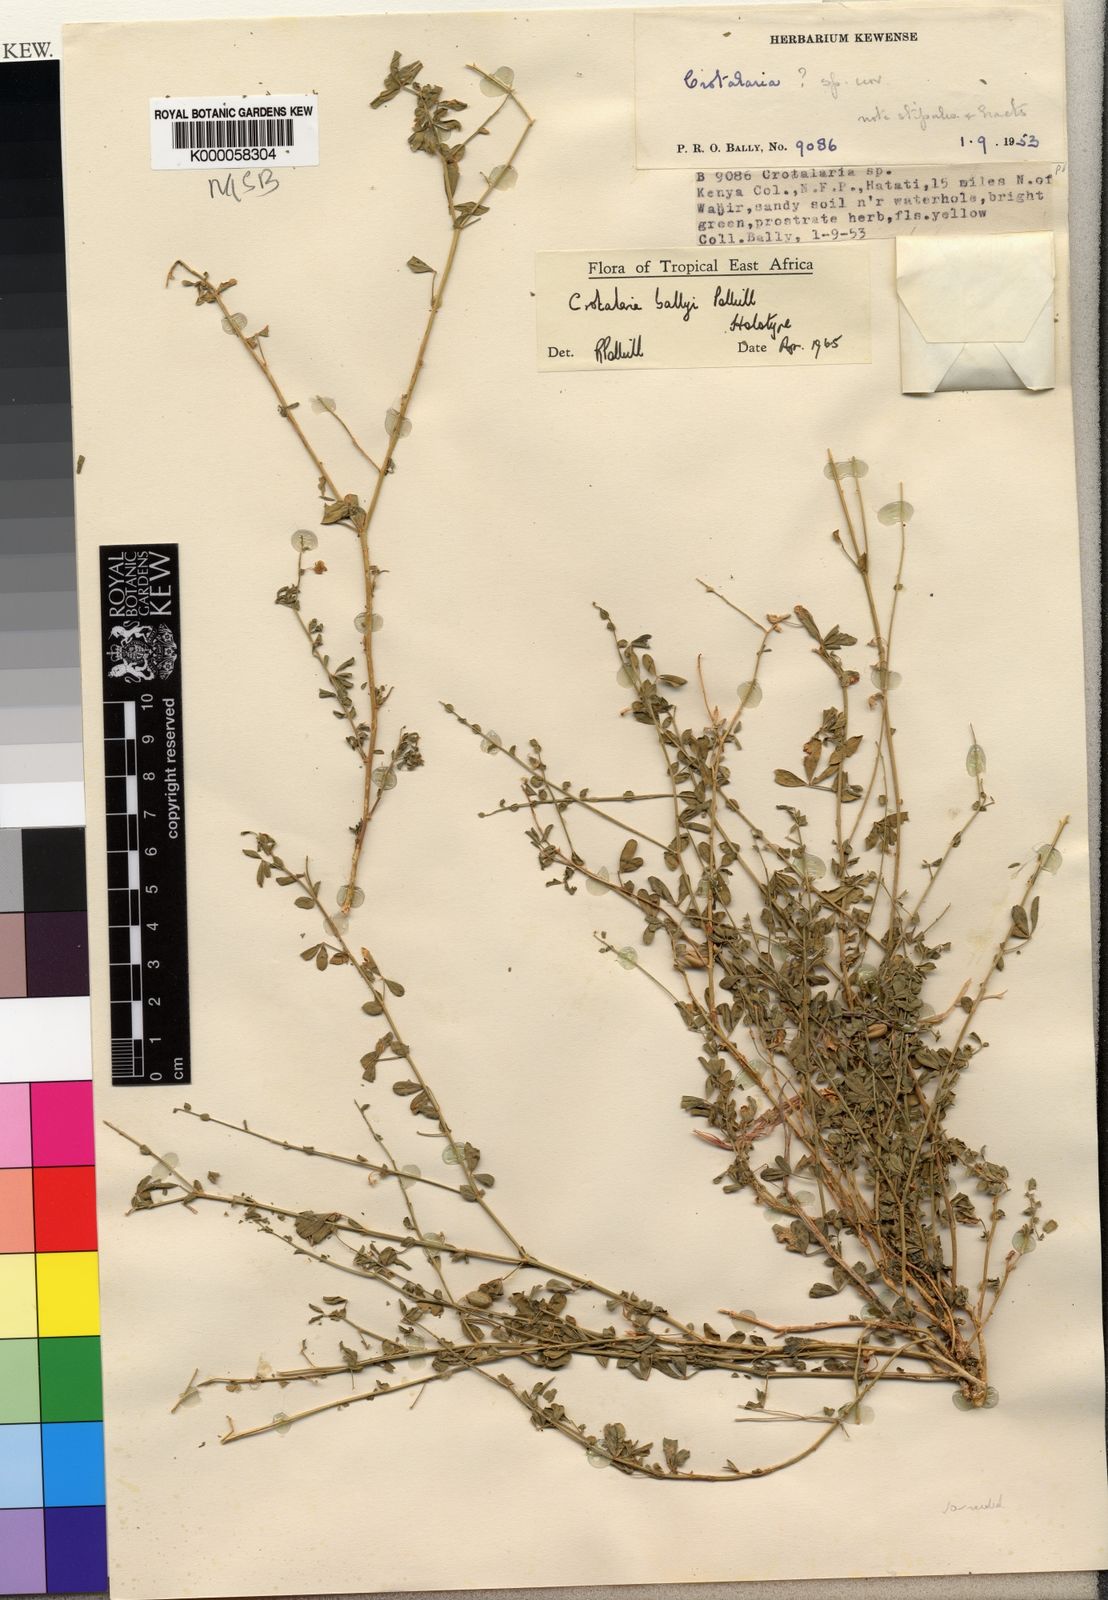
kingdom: Plantae
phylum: Tracheophyta
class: Magnoliopsida
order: Fabales
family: Fabaceae
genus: Crotalaria
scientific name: Crotalaria ballyi
